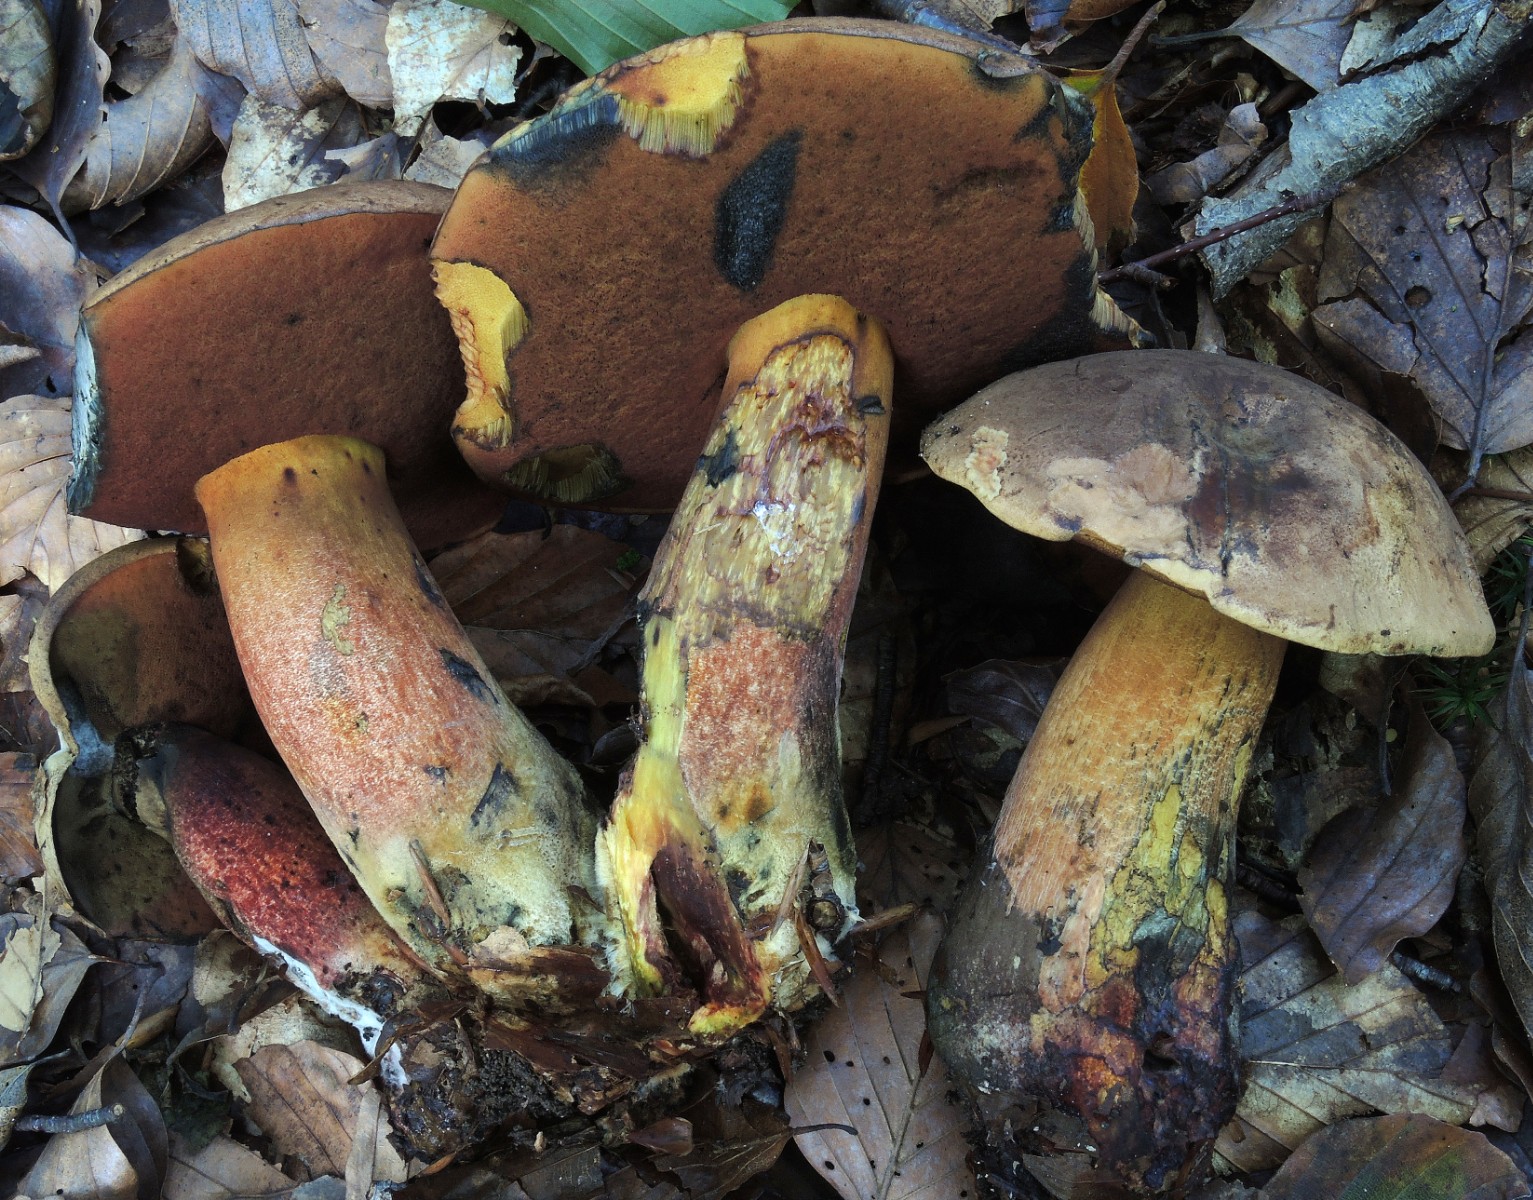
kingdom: Fungi
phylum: Basidiomycota
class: Agaricomycetes
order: Boletales
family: Boletaceae
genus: Neoboletus
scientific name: Neoboletus erythropus
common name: punktstokket indigorørhat
